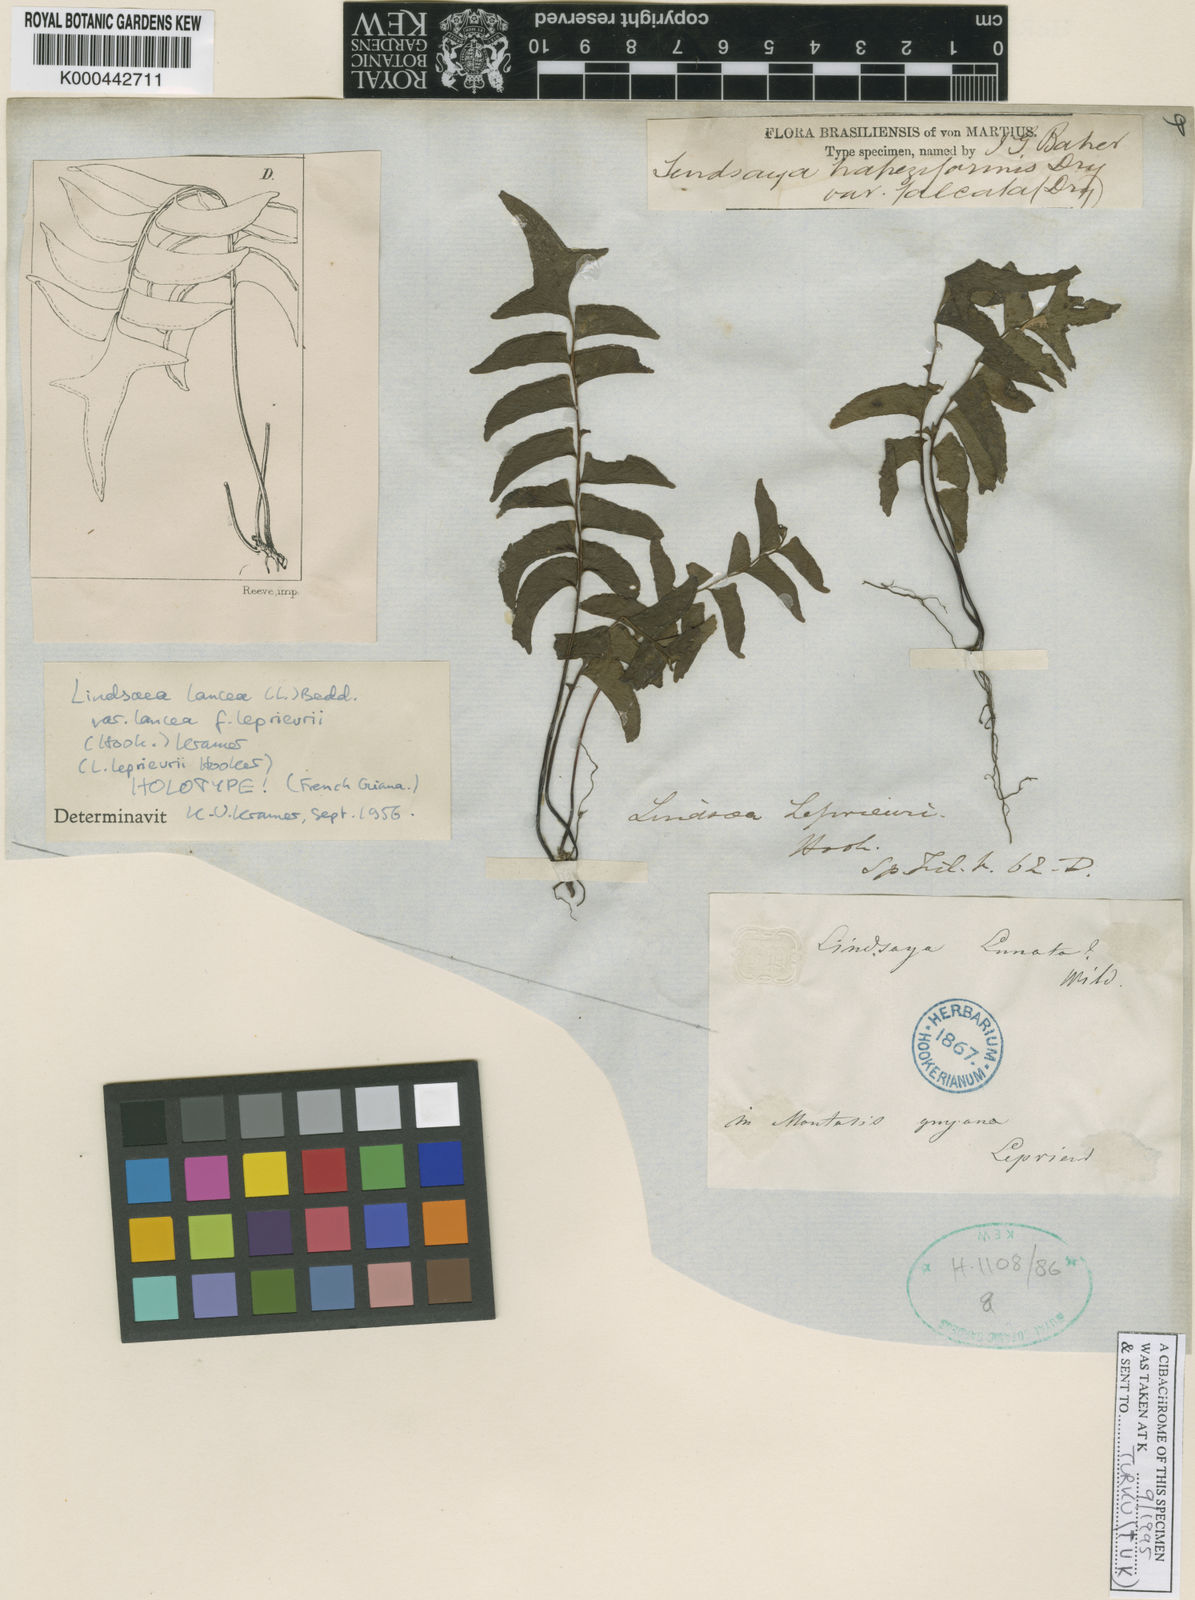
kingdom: Plantae
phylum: Tracheophyta
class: Polypodiopsida
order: Polypodiales
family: Lindsaeaceae
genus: Lindsaea
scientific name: Lindsaea
